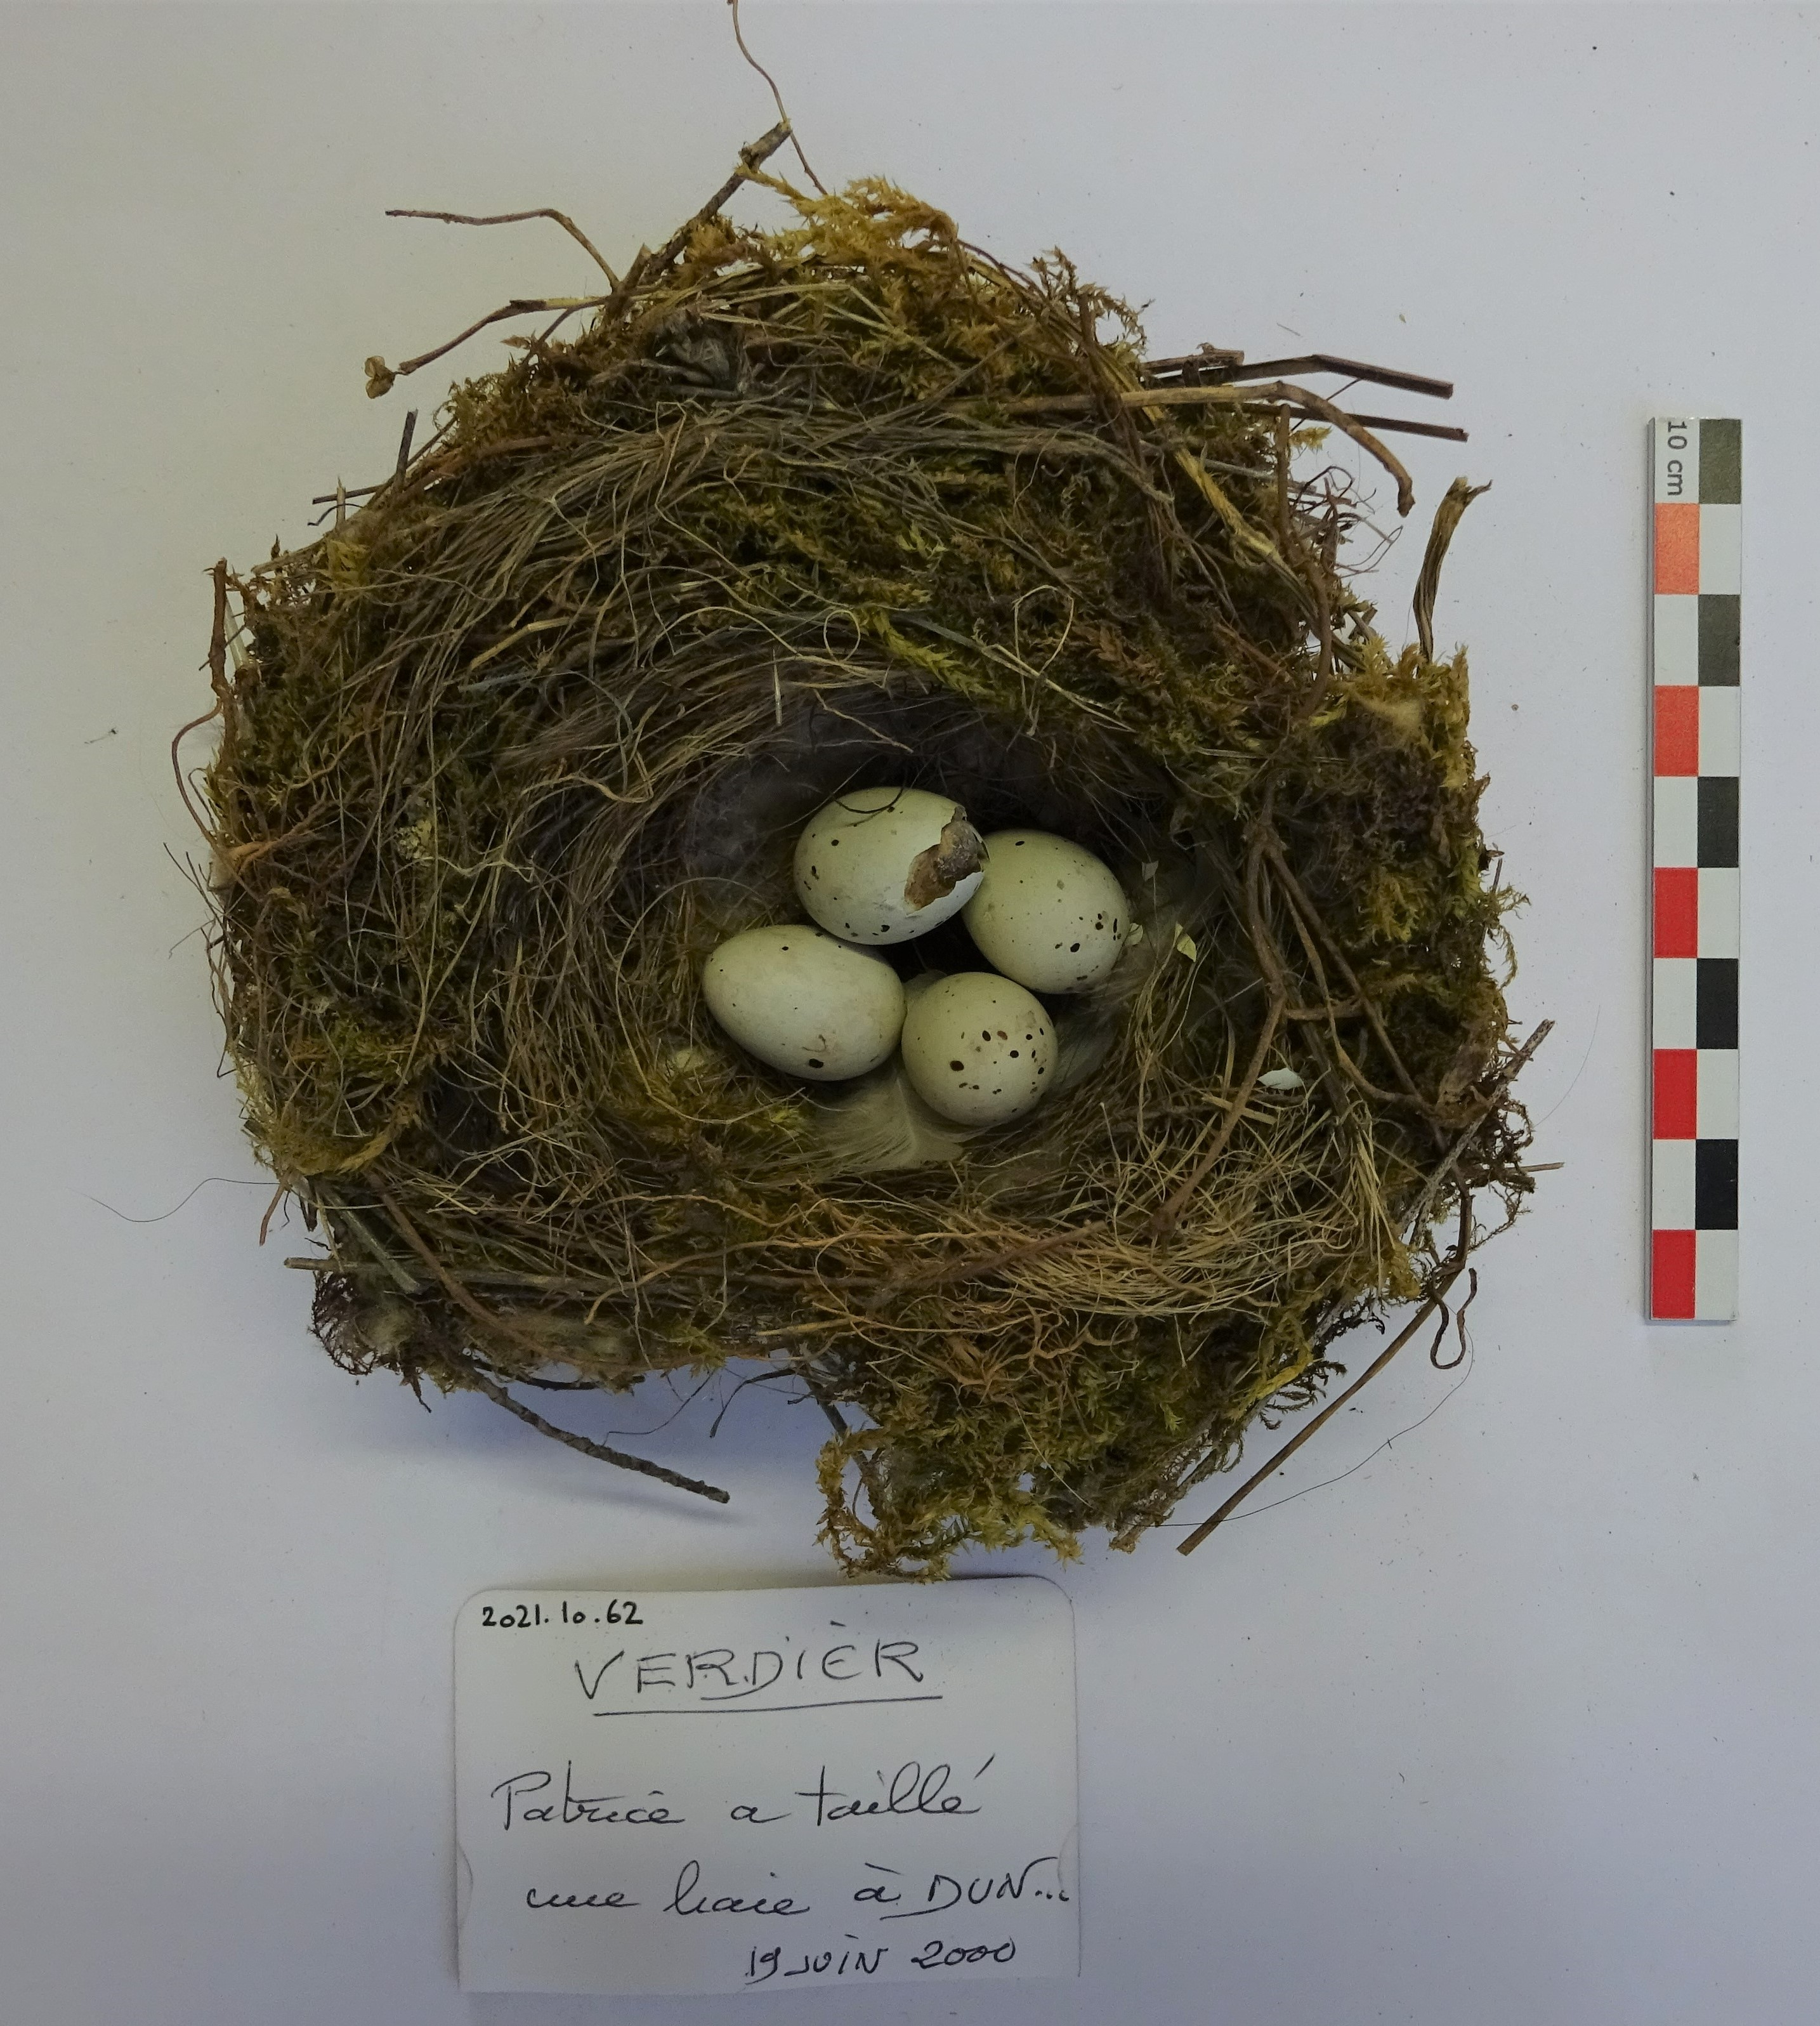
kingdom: Plantae
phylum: Tracheophyta
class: Liliopsida
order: Poales
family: Poaceae
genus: Chloris
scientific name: Chloris chloris
